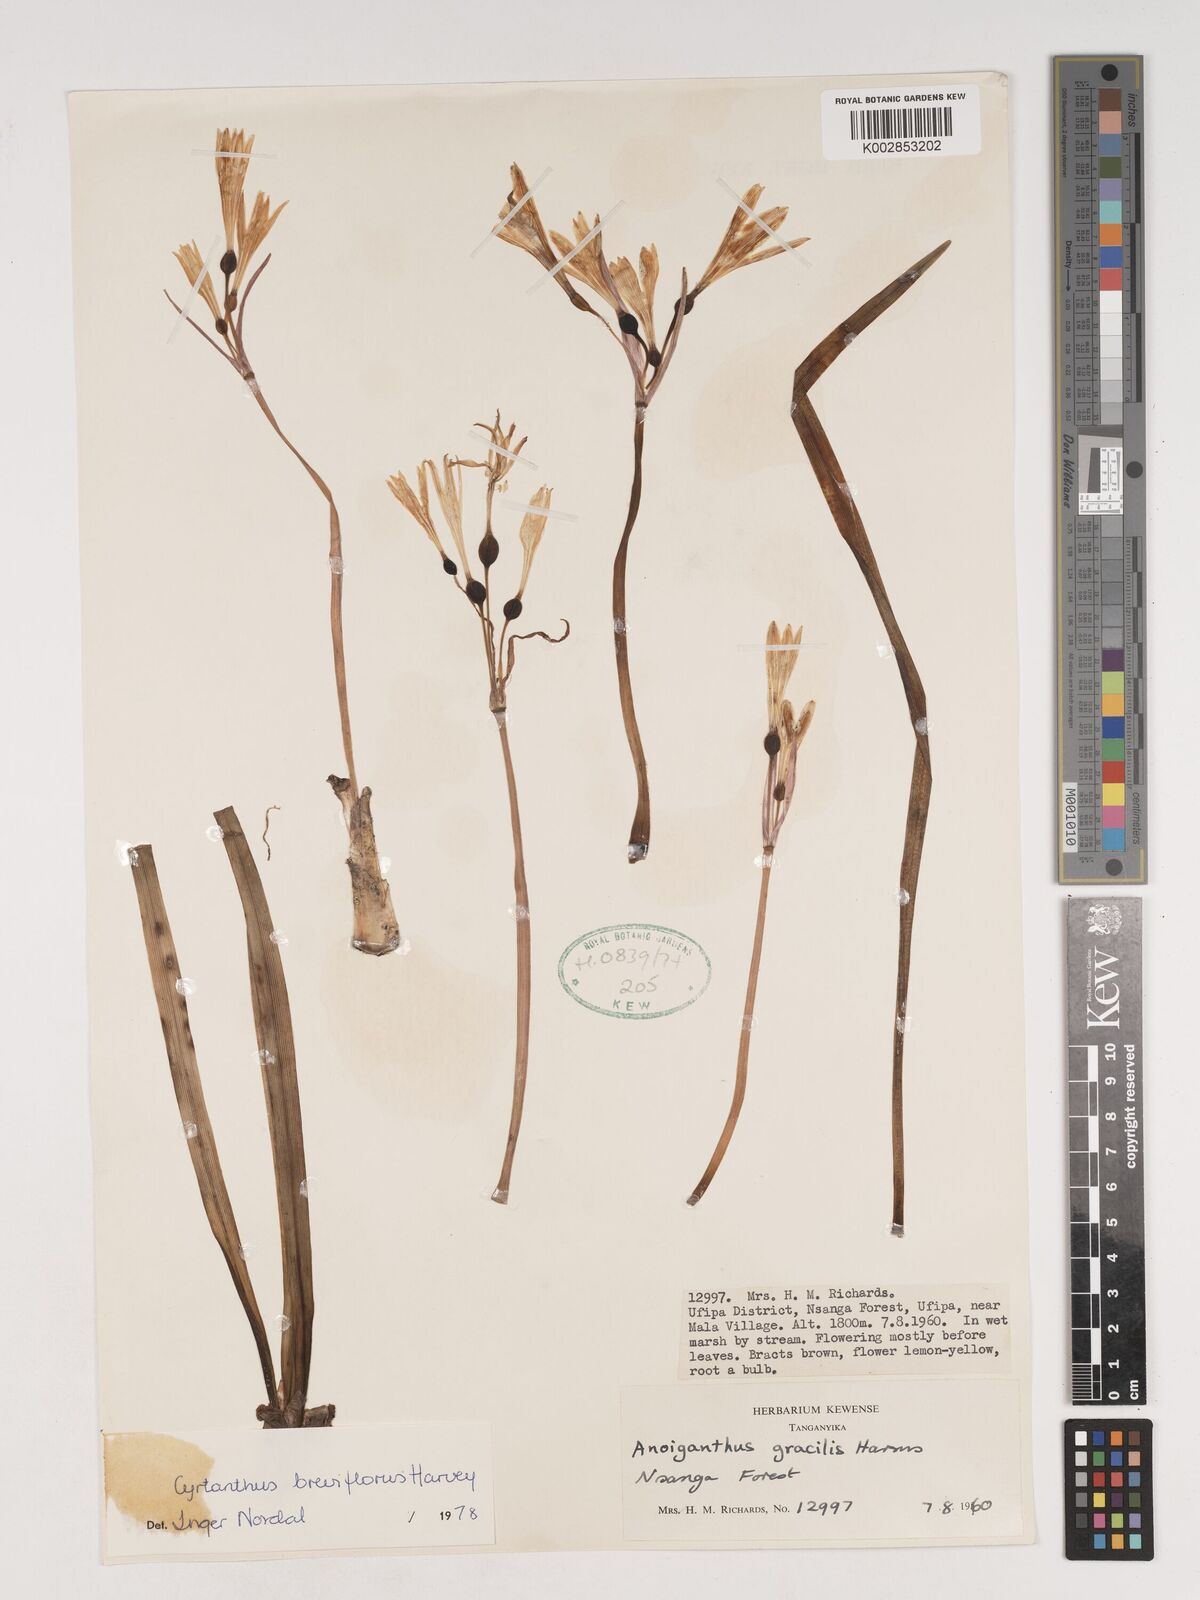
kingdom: Plantae
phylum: Tracheophyta
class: Liliopsida
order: Asparagales
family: Amaryllidaceae
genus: Cyrtanthus
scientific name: Cyrtanthus breviflorus
